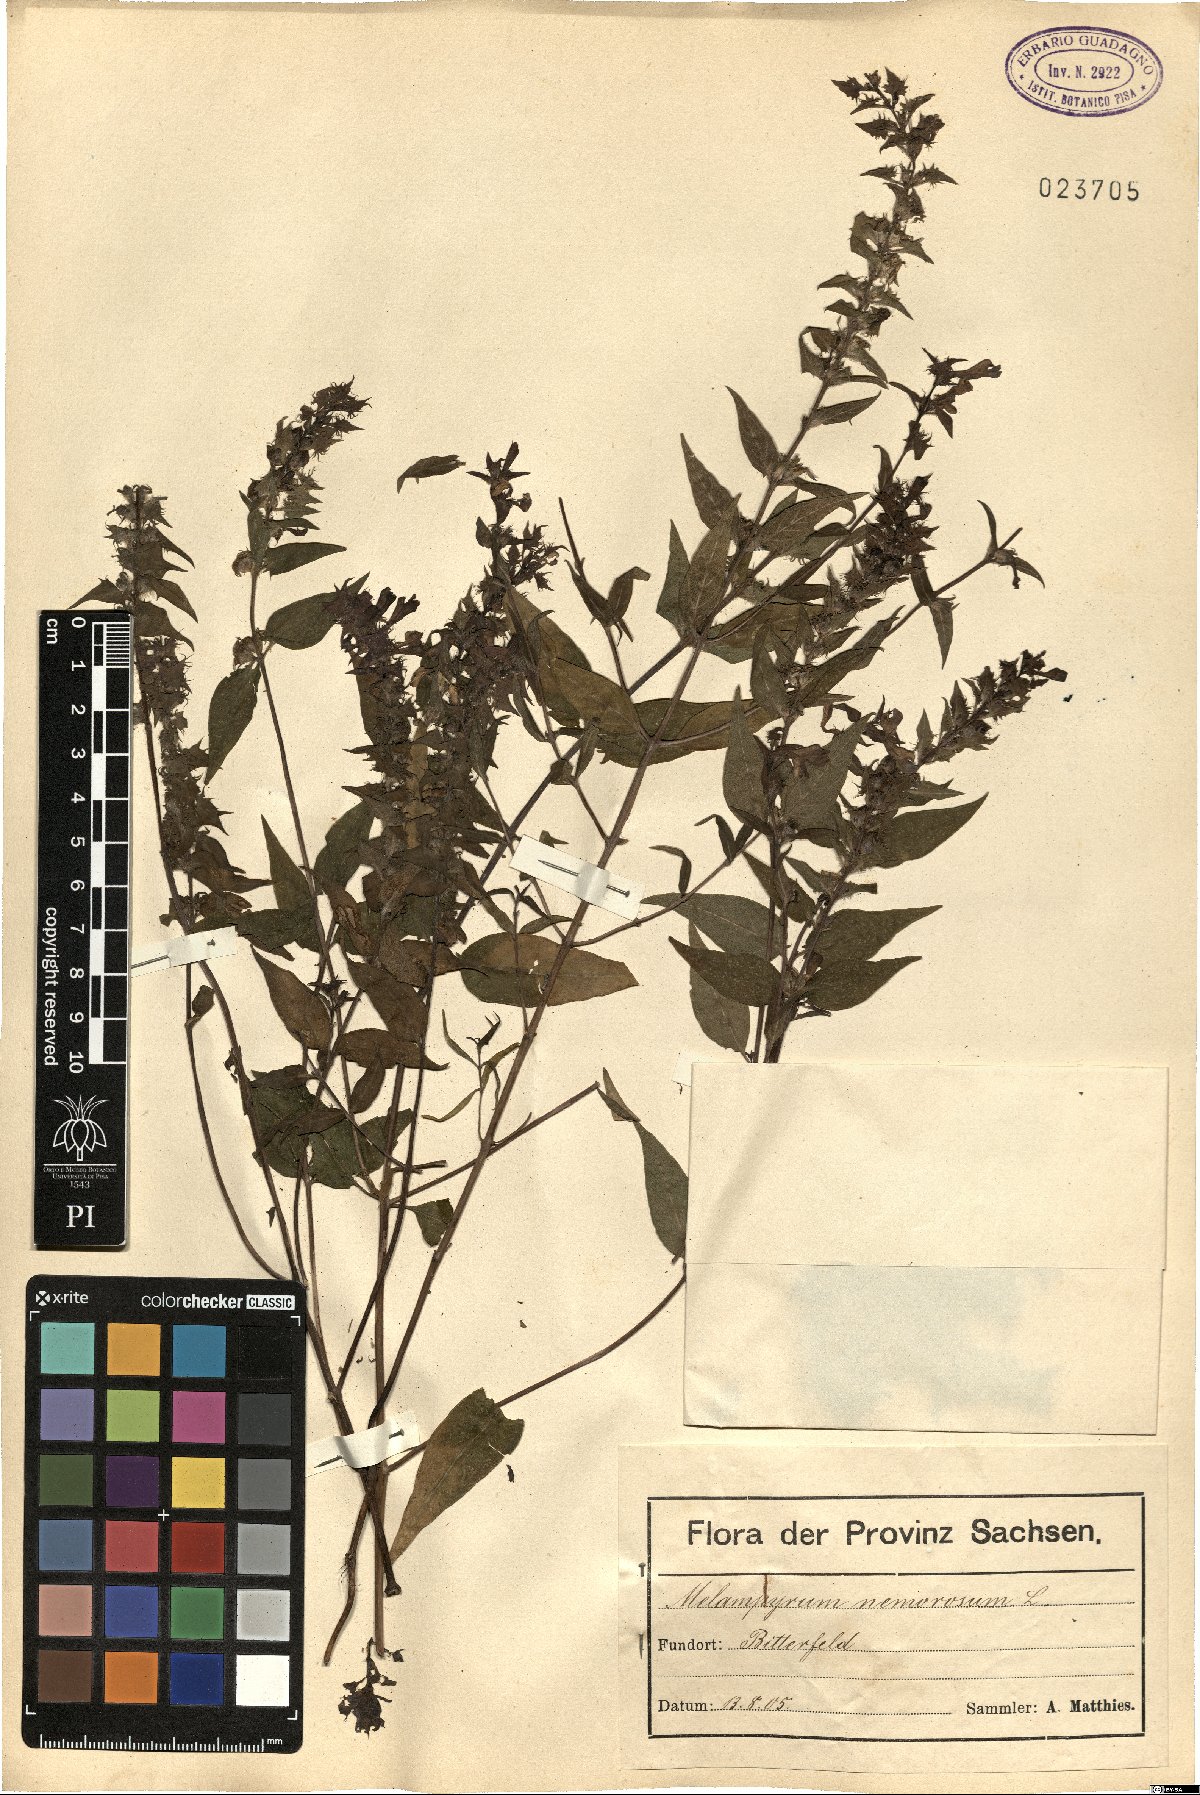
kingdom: Plantae
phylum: Tracheophyta
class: Magnoliopsida
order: Lamiales
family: Orobanchaceae
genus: Melampyrum
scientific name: Melampyrum nemorosum
